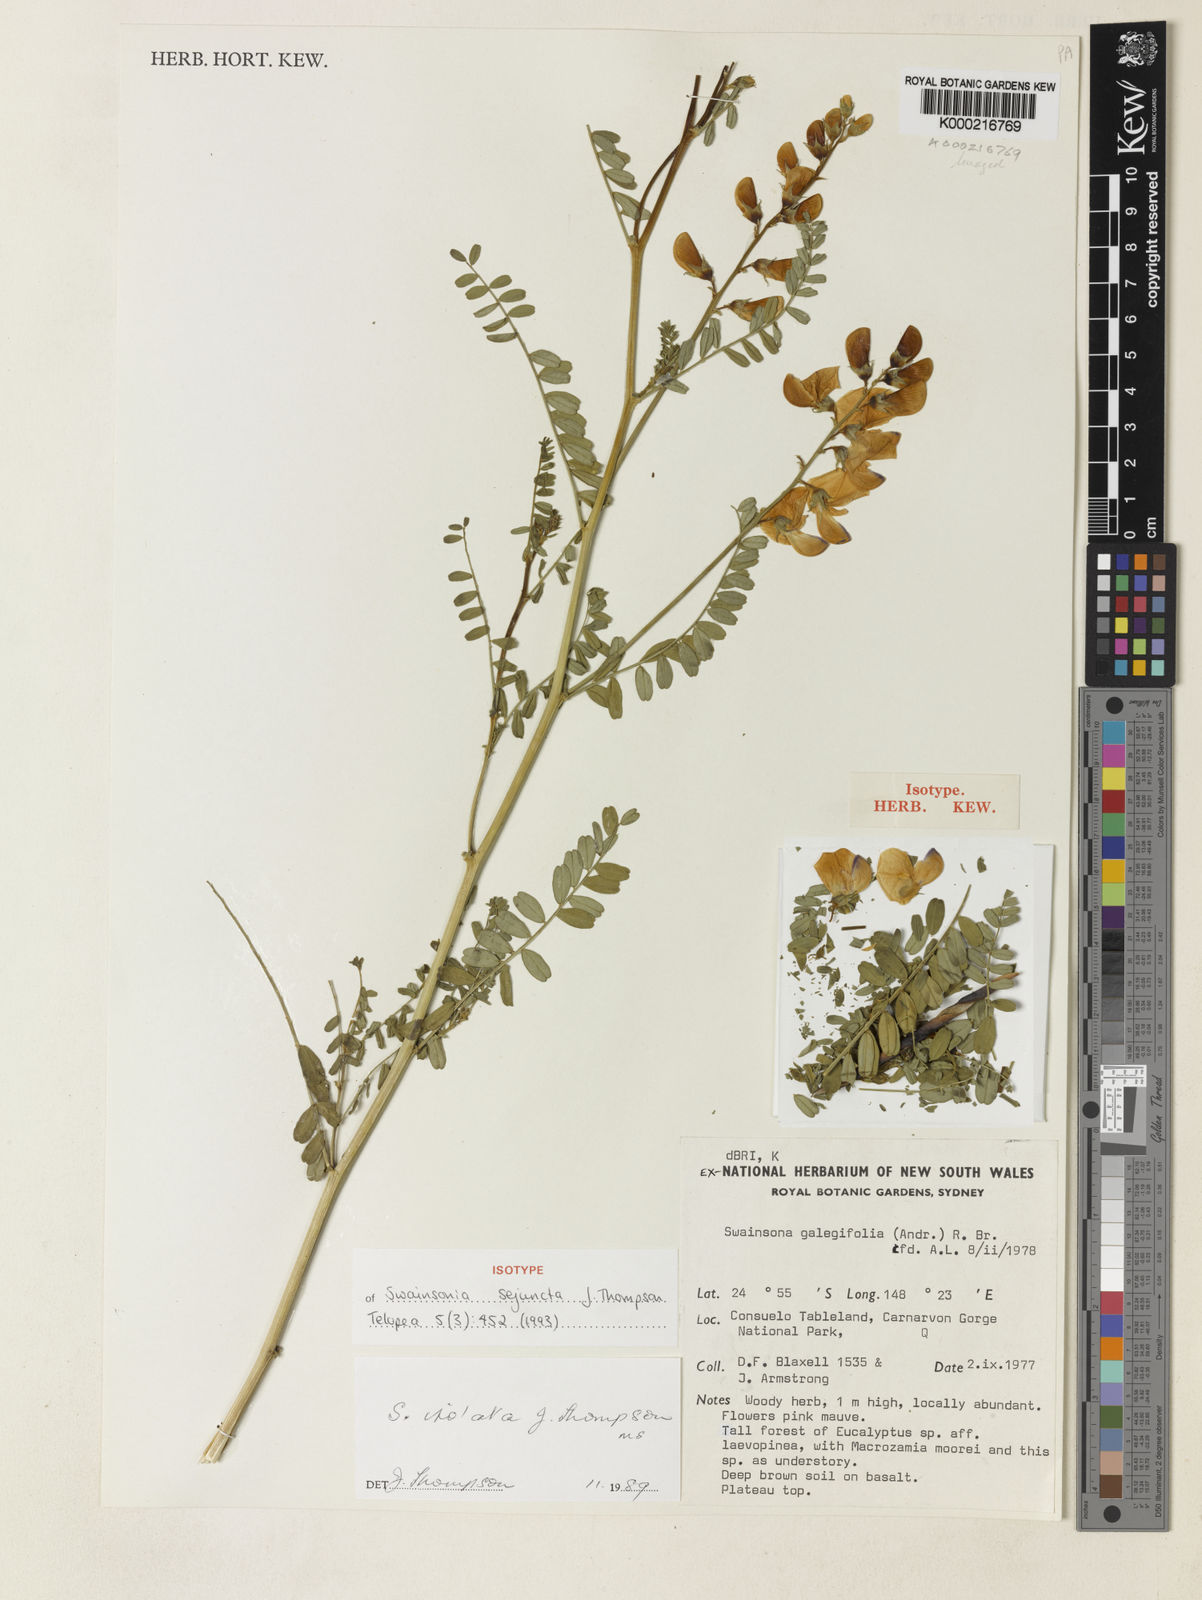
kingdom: Plantae
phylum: Tracheophyta
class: Magnoliopsida
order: Fabales
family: Fabaceae
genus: Swainsona
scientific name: Swainsona sejuncta
